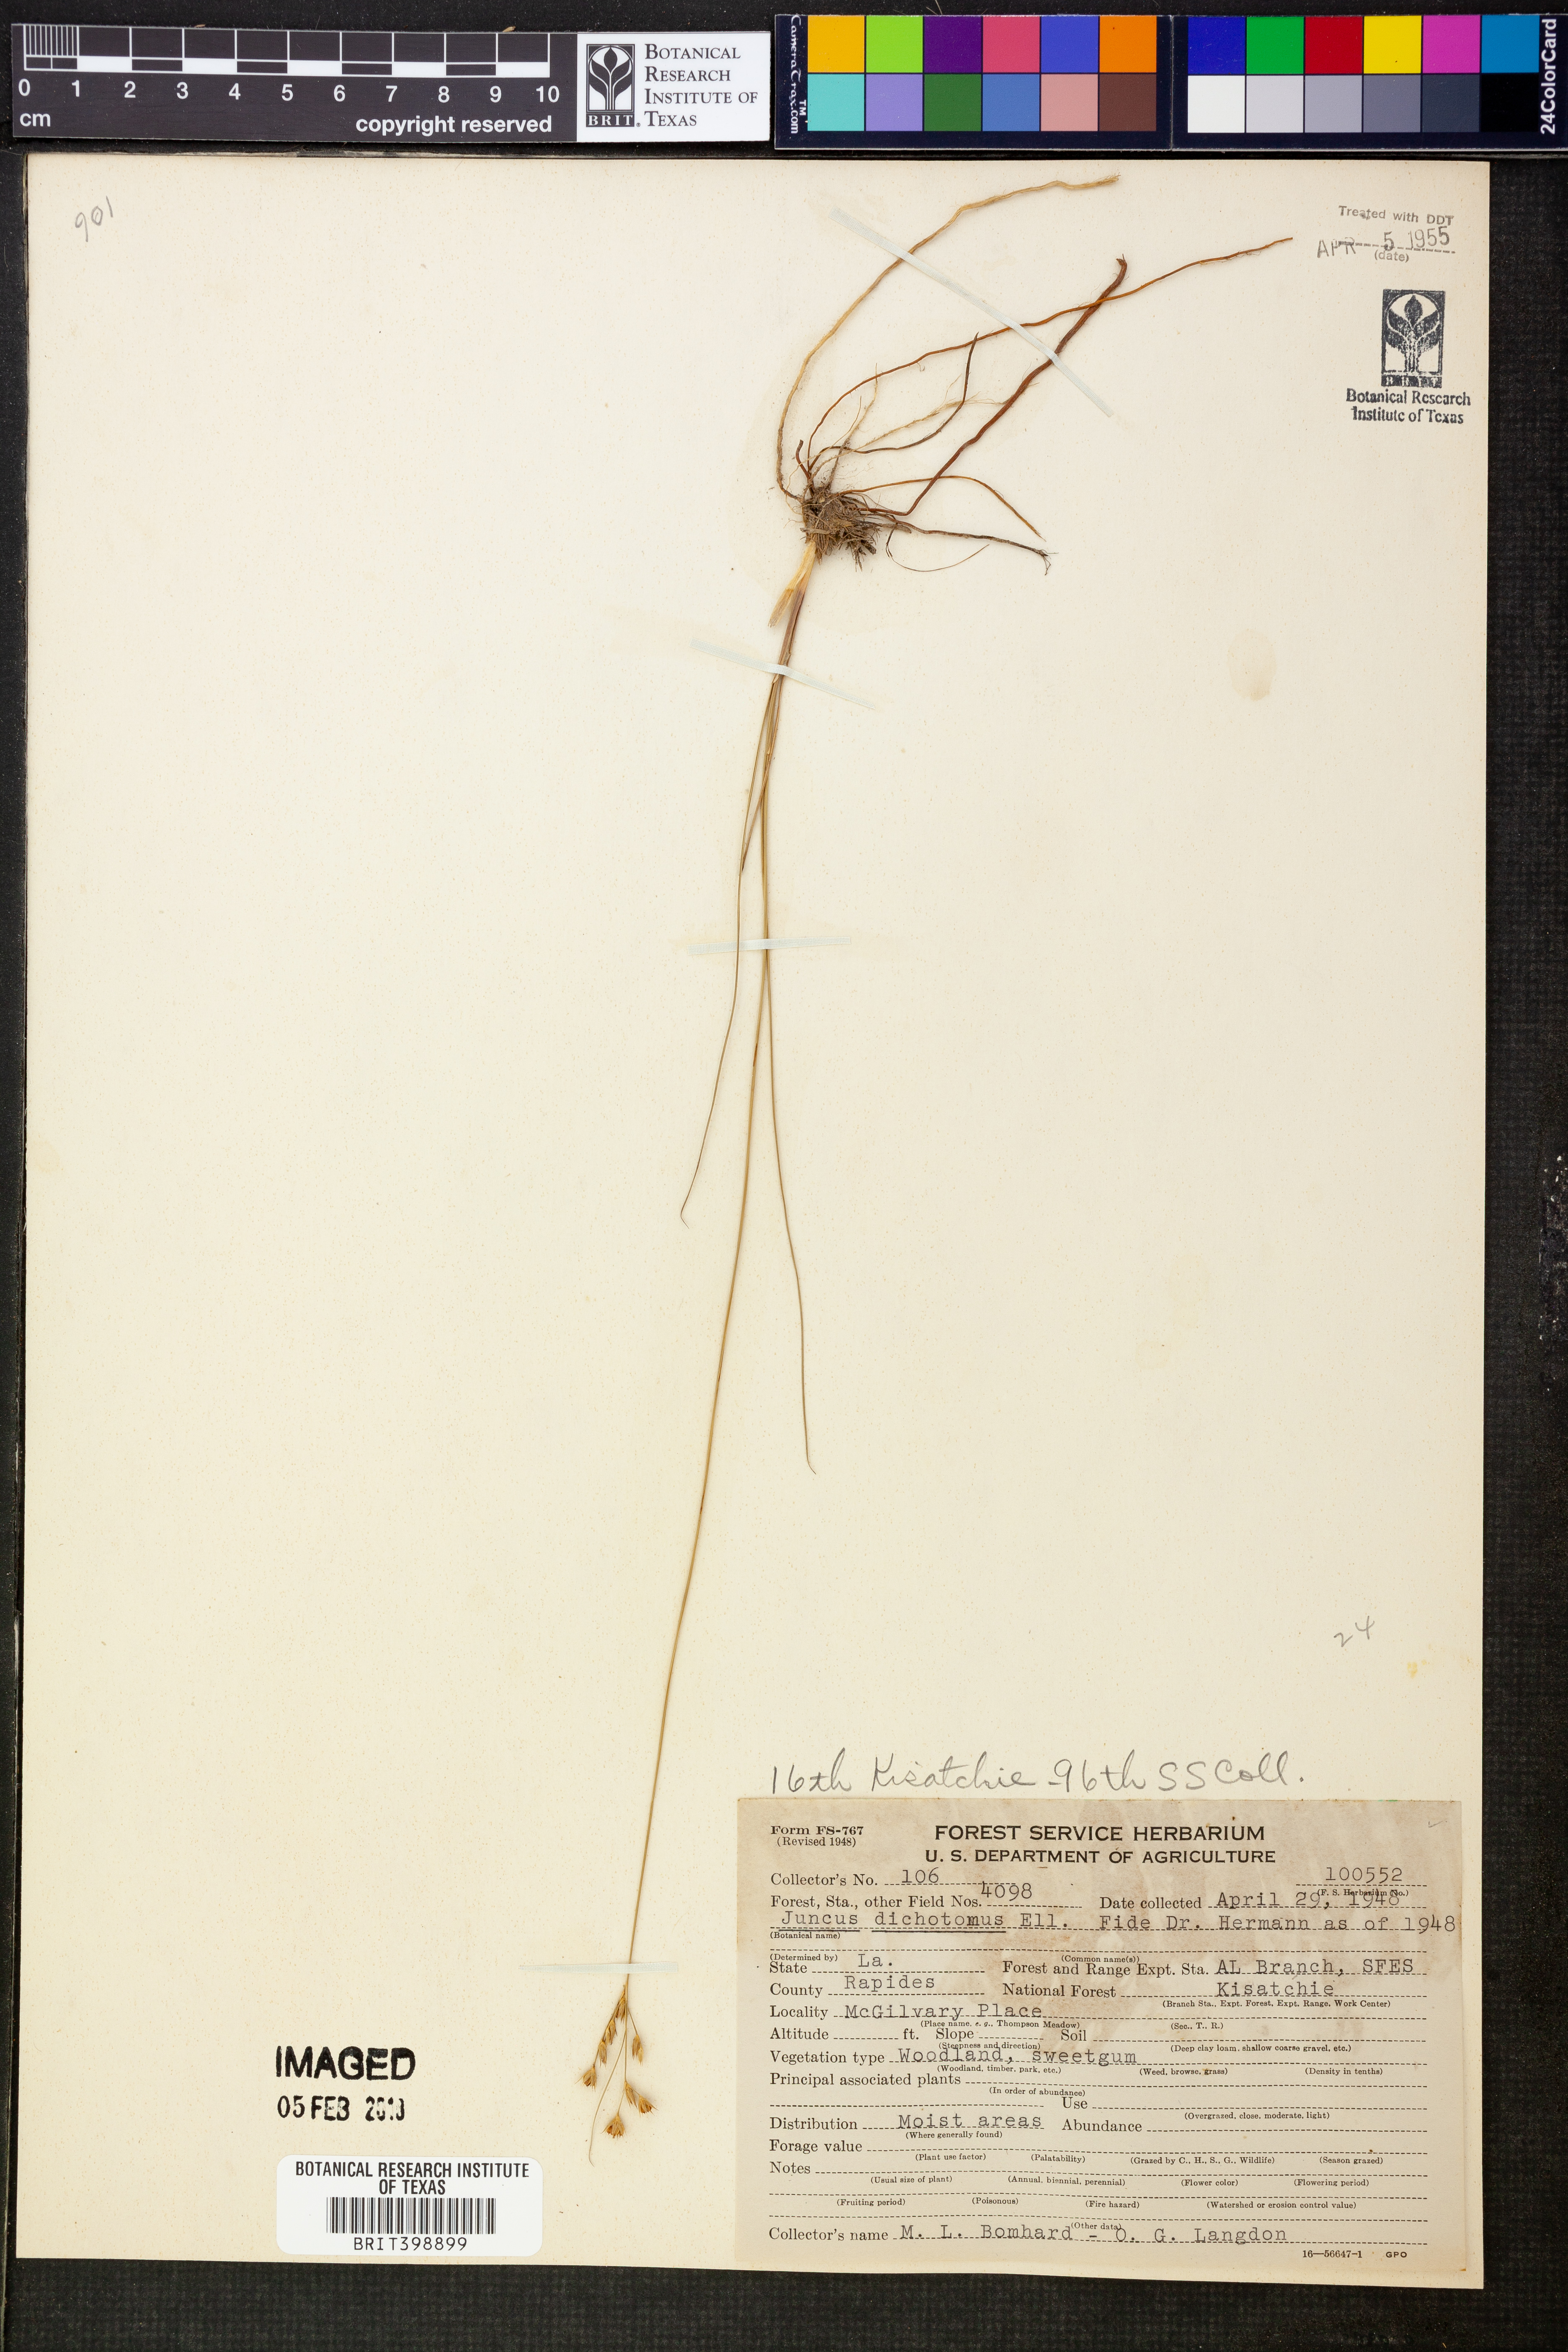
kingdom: Plantae
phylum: Tracheophyta
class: Liliopsida
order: Poales
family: Juncaceae
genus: Juncus
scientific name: Juncus dichotomus
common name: Forked rush
